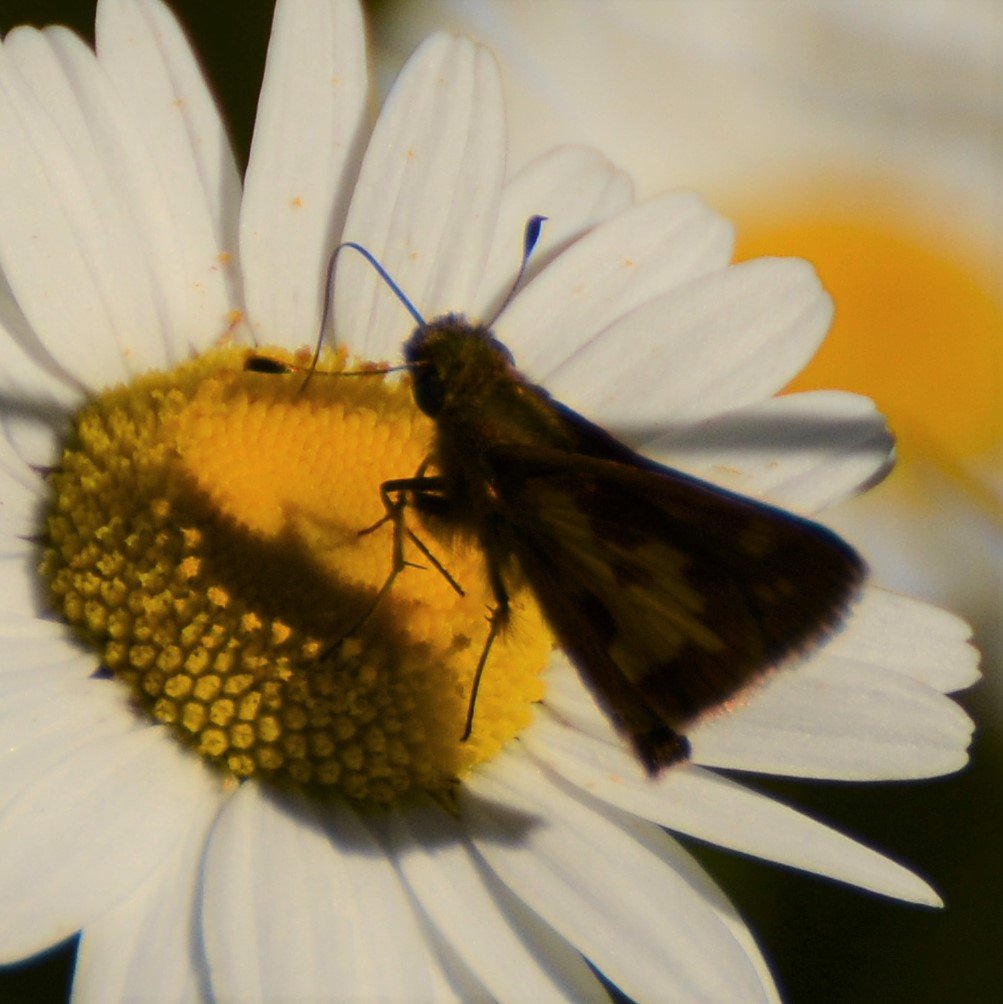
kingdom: Animalia
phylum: Arthropoda
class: Insecta
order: Lepidoptera
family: Hesperiidae
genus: Polites
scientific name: Polites coras
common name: Peck's Skipper
